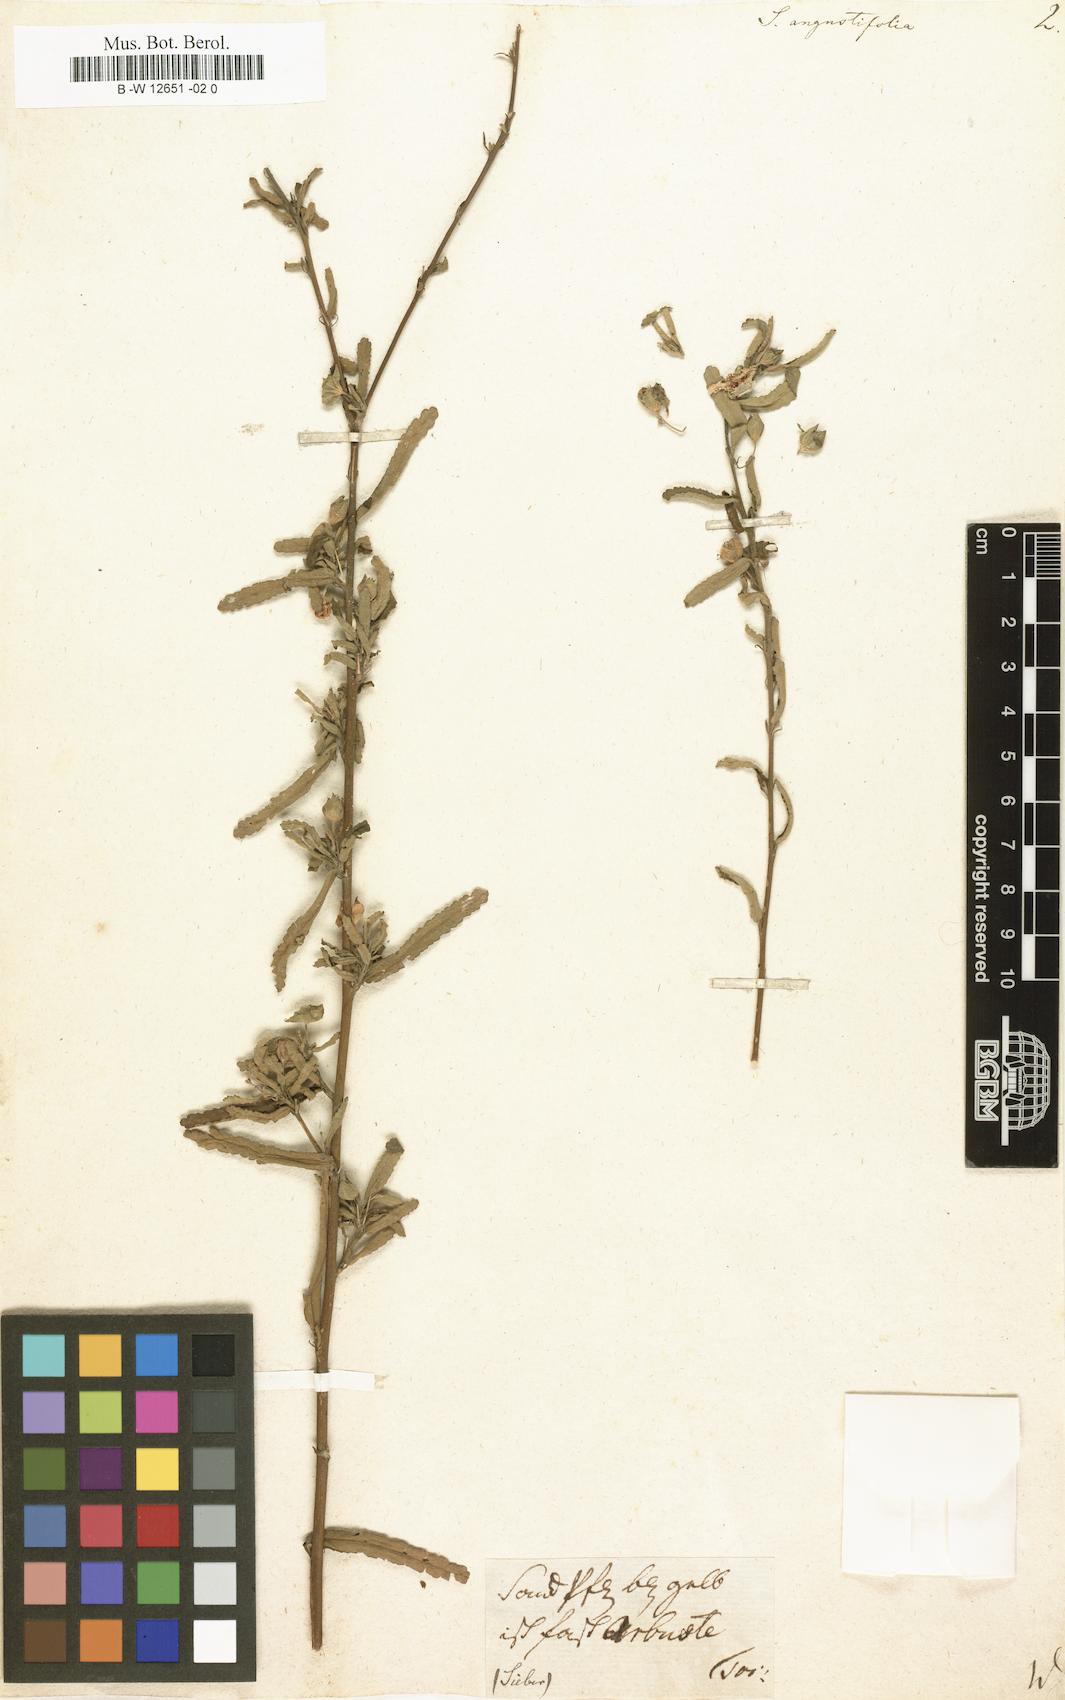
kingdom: Plantae
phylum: Tracheophyta
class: Magnoliopsida
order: Malvales
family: Malvaceae
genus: Sida
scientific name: Sida angustifolia
